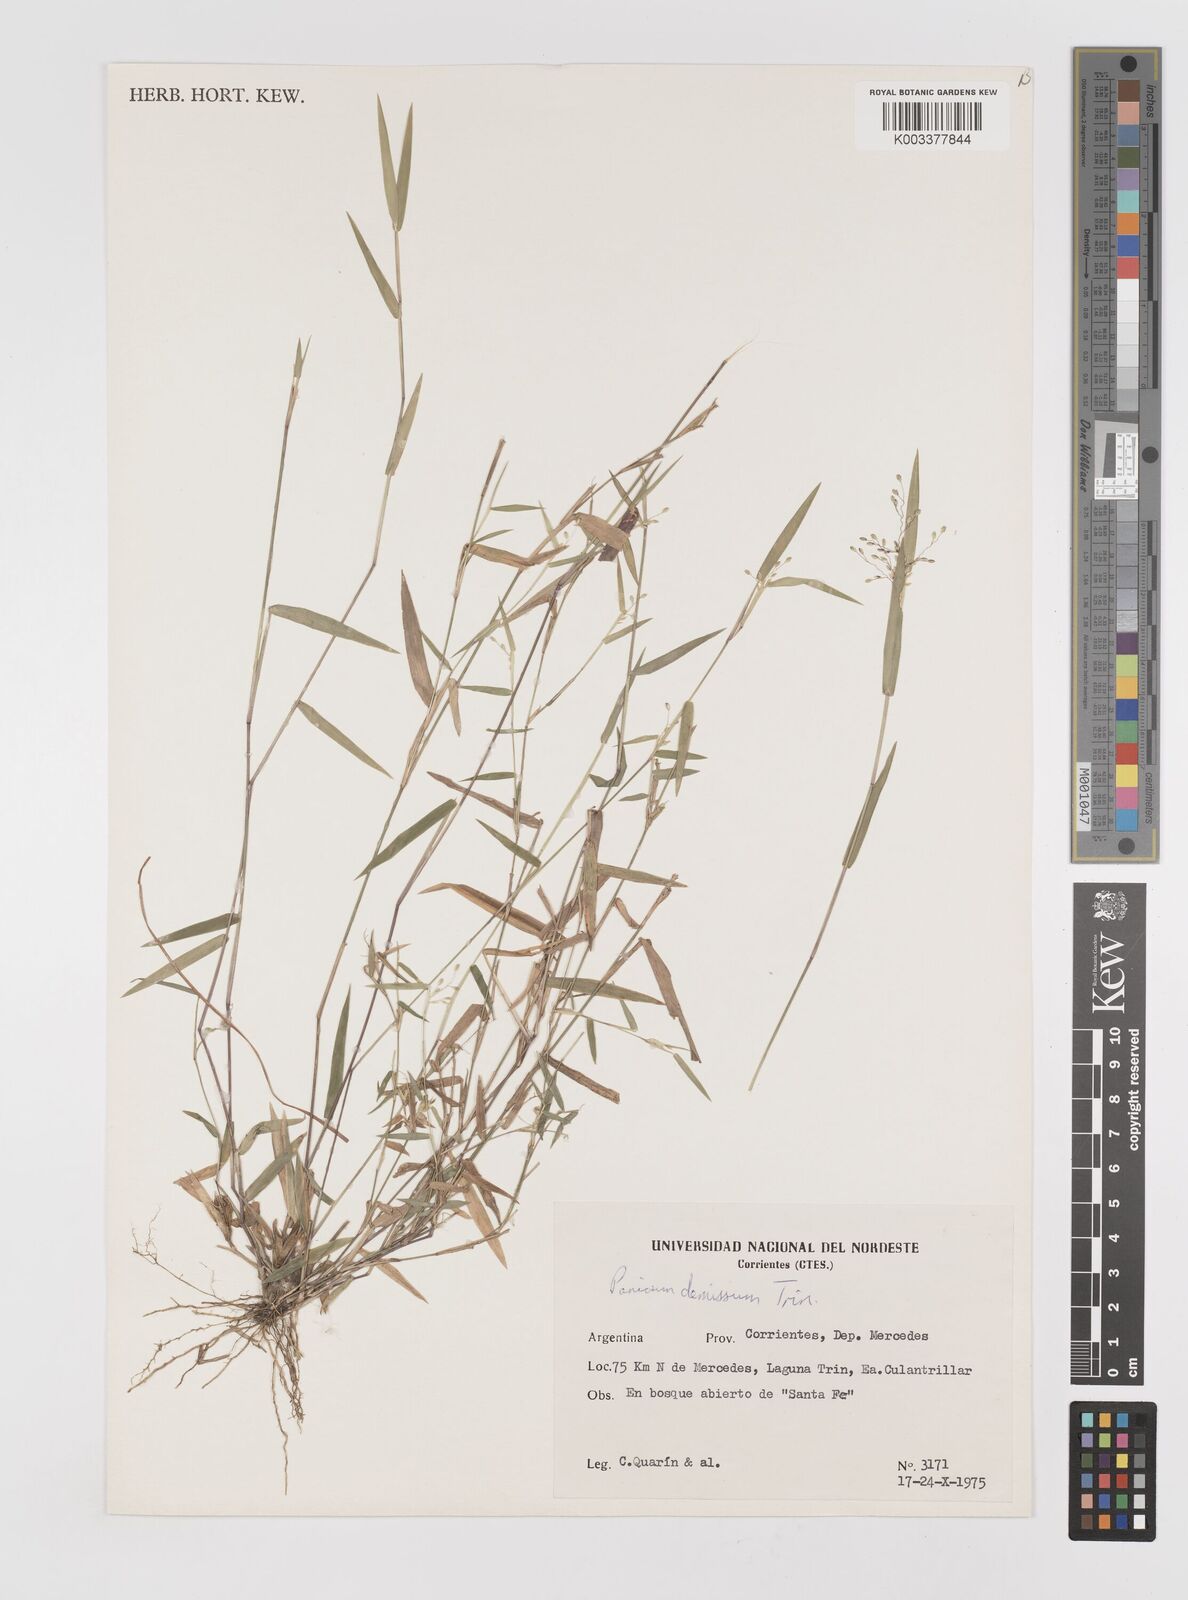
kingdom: Plantae
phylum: Tracheophyta
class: Liliopsida
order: Poales
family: Poaceae
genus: Dichanthelium
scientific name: Dichanthelium stigmosum
